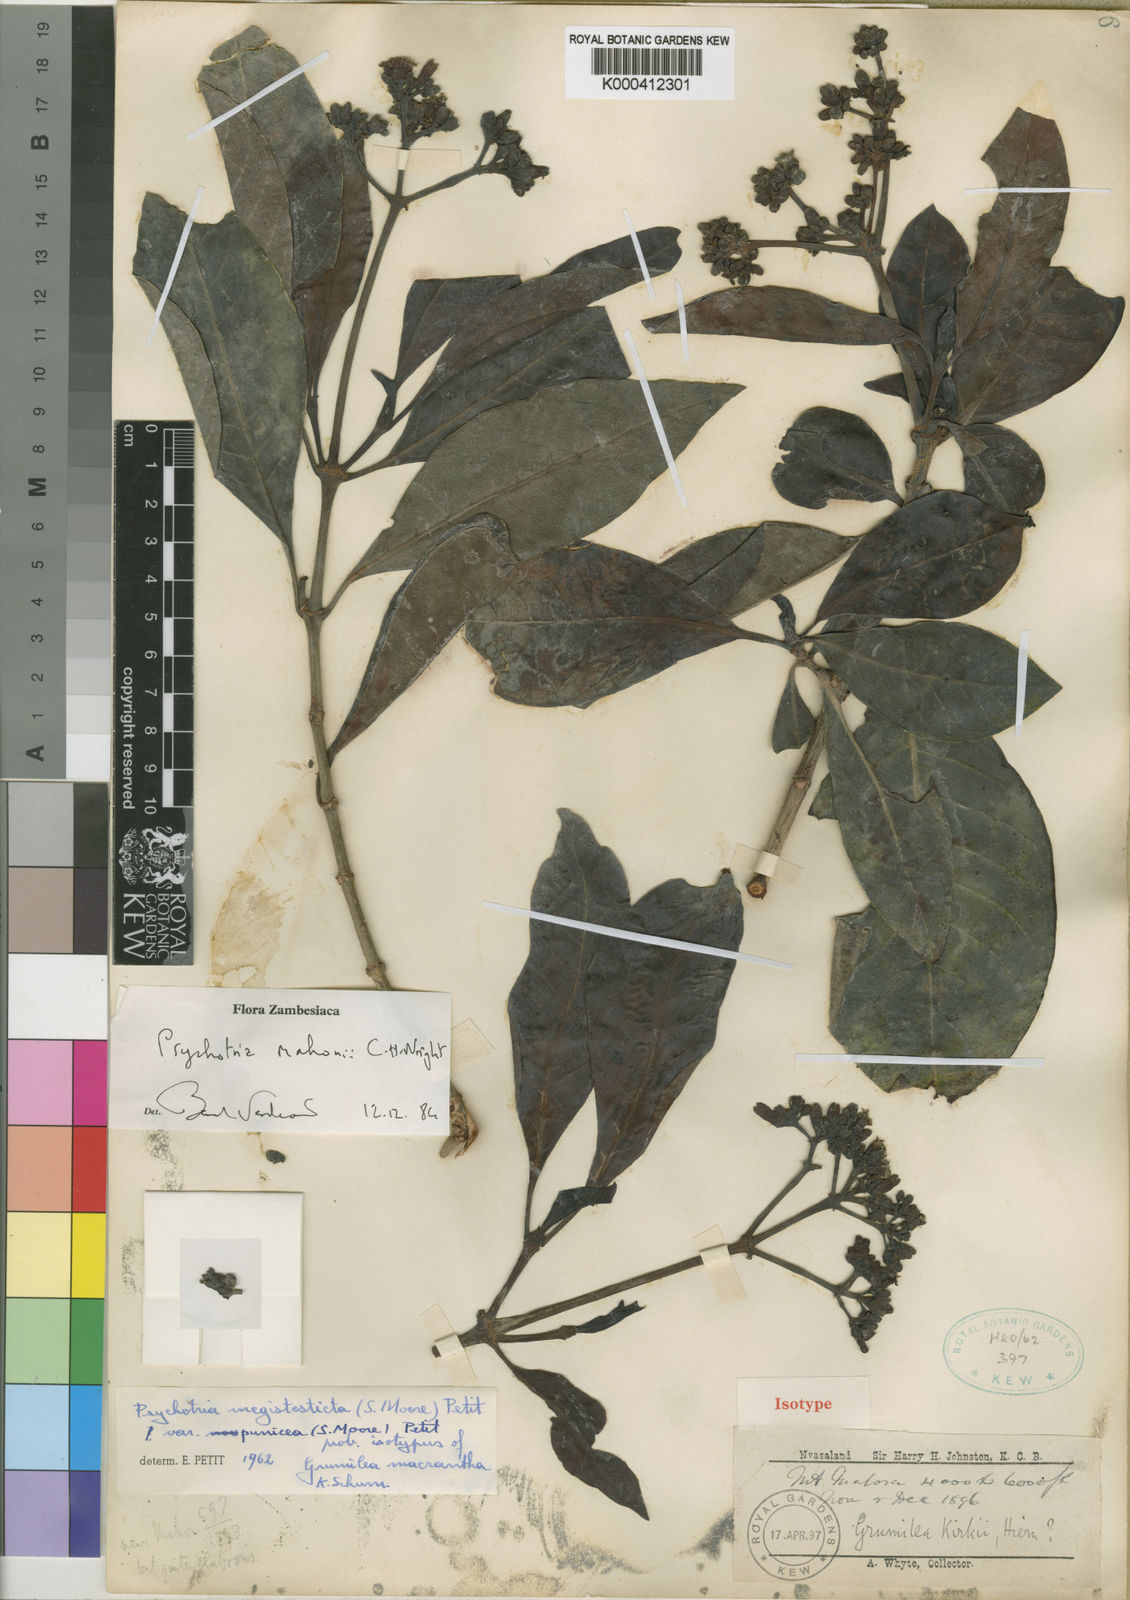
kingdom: Plantae
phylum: Tracheophyta
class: Magnoliopsida
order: Gentianales
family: Rubiaceae
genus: Psychotria
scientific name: Psychotria mahonii
